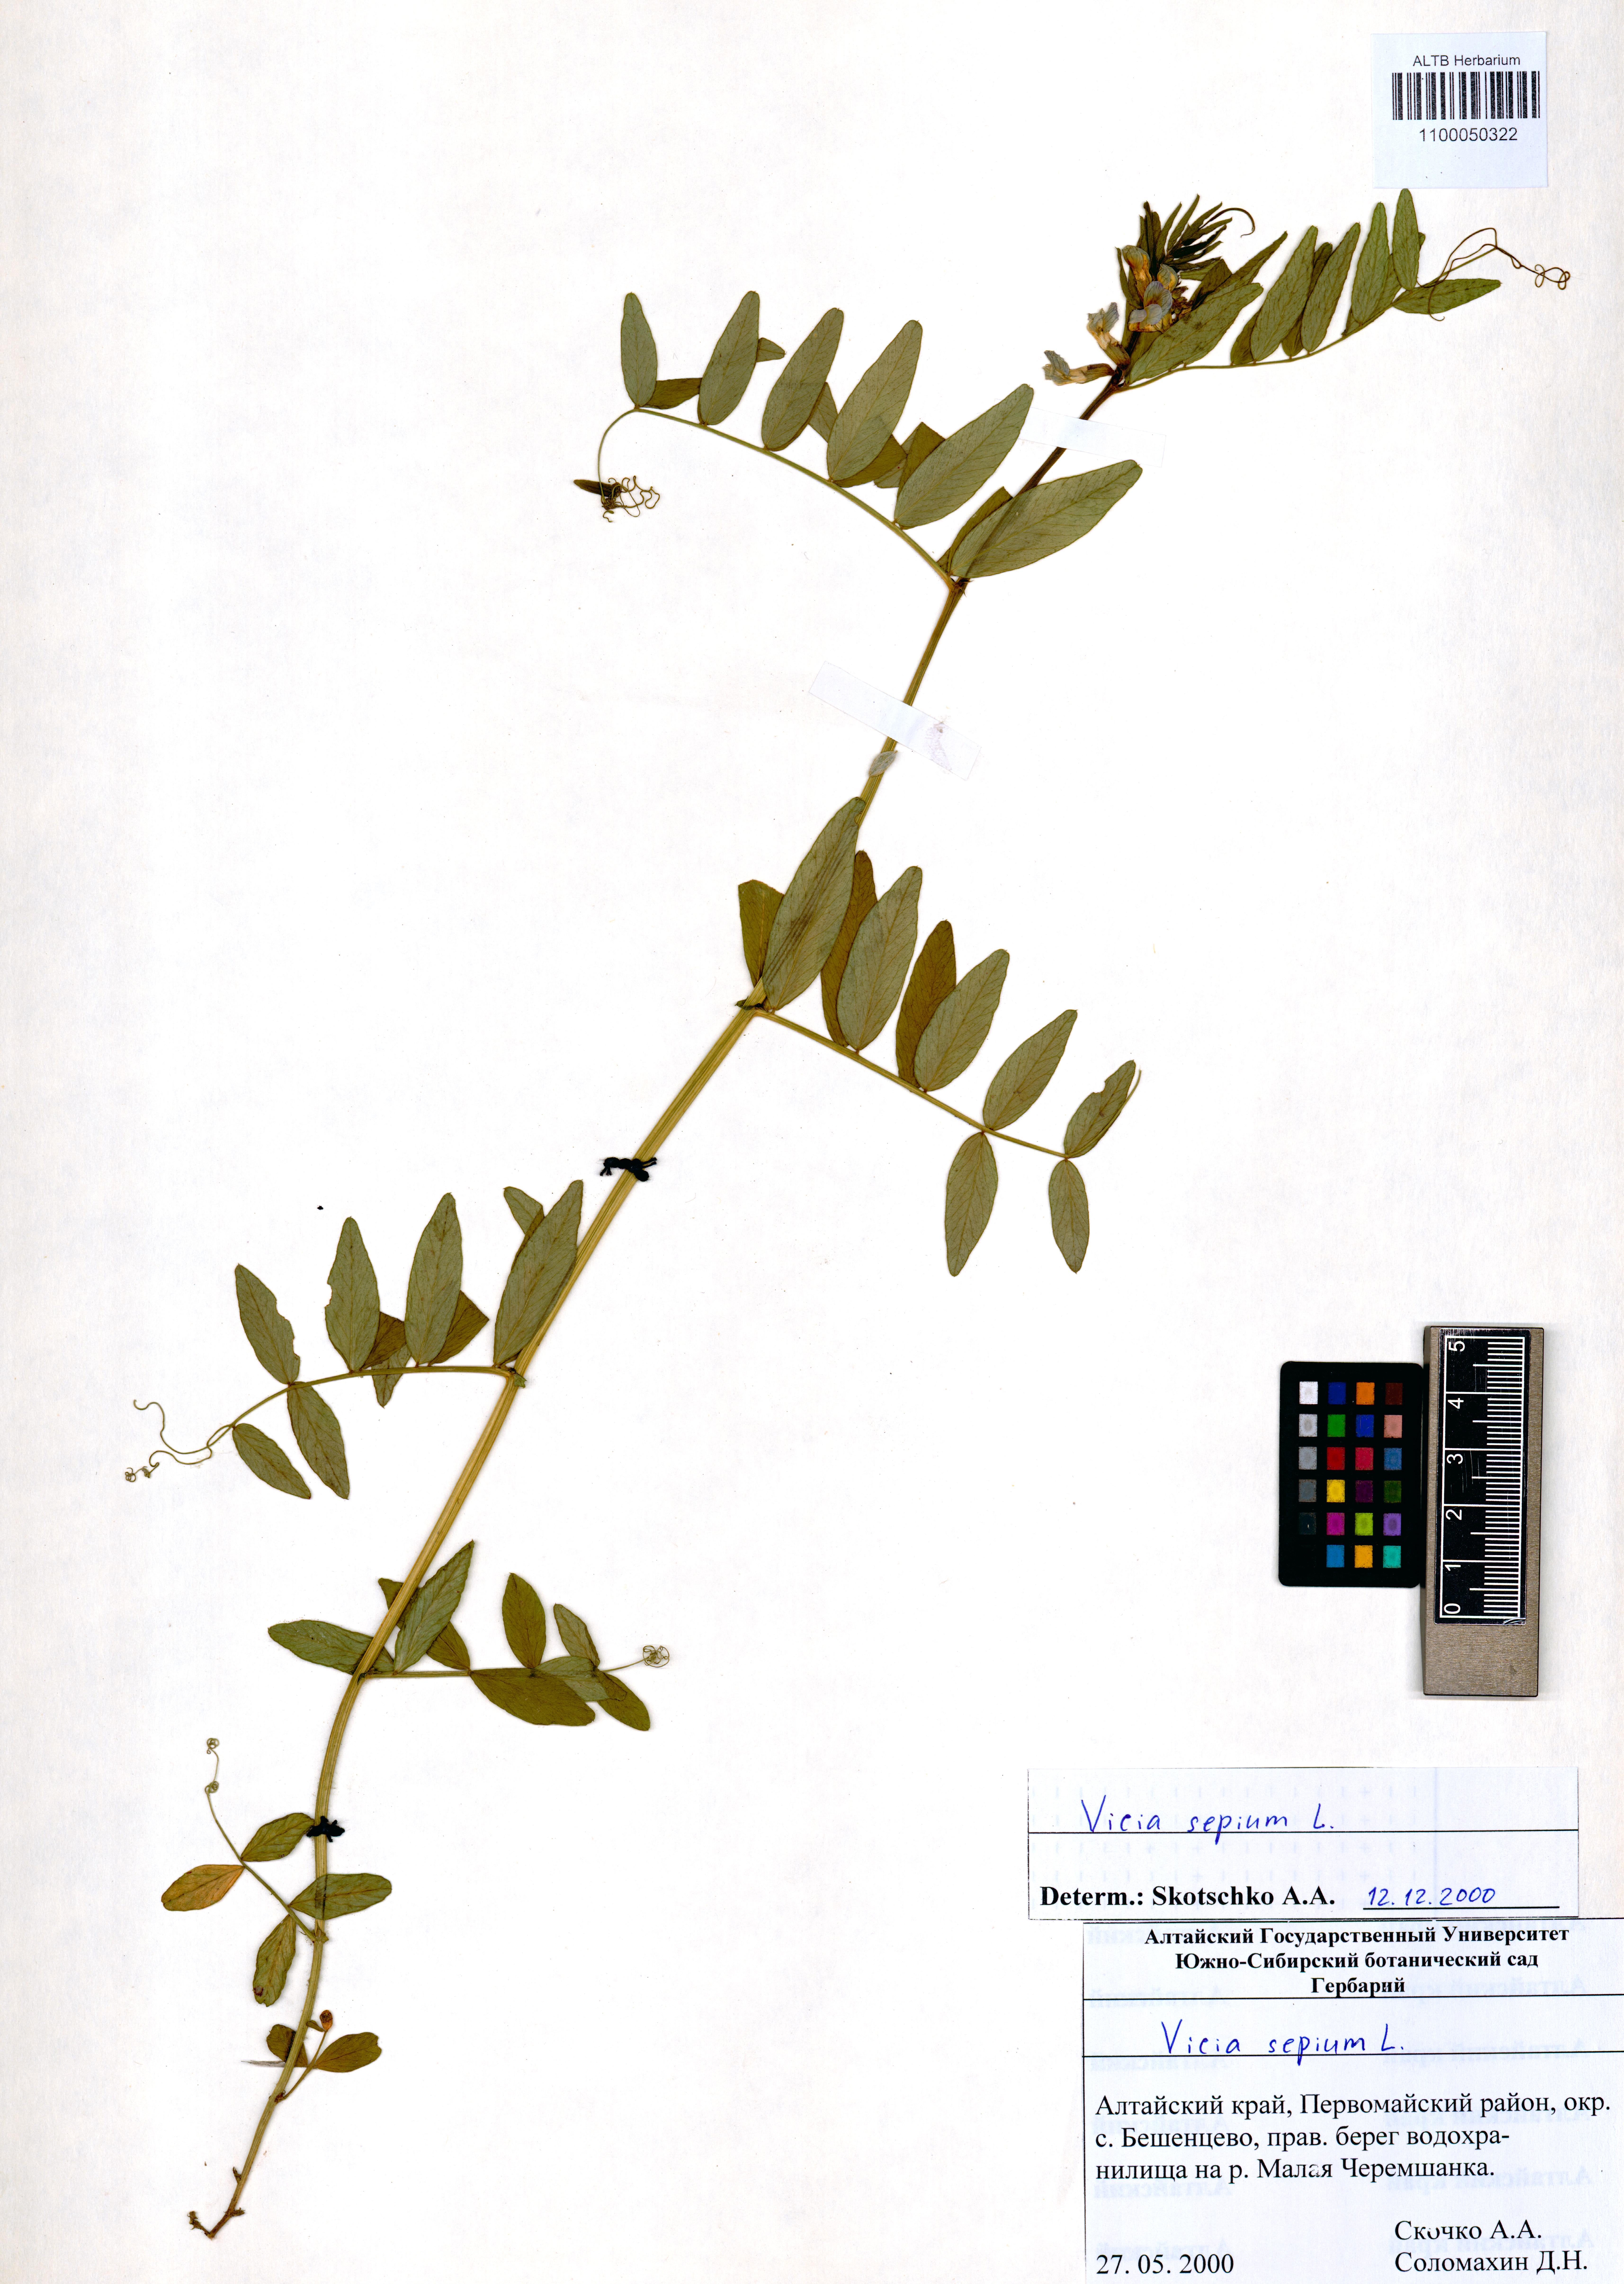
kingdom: Plantae
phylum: Tracheophyta
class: Magnoliopsida
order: Fabales
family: Fabaceae
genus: Vicia
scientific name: Vicia sepium
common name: Bush vetch
